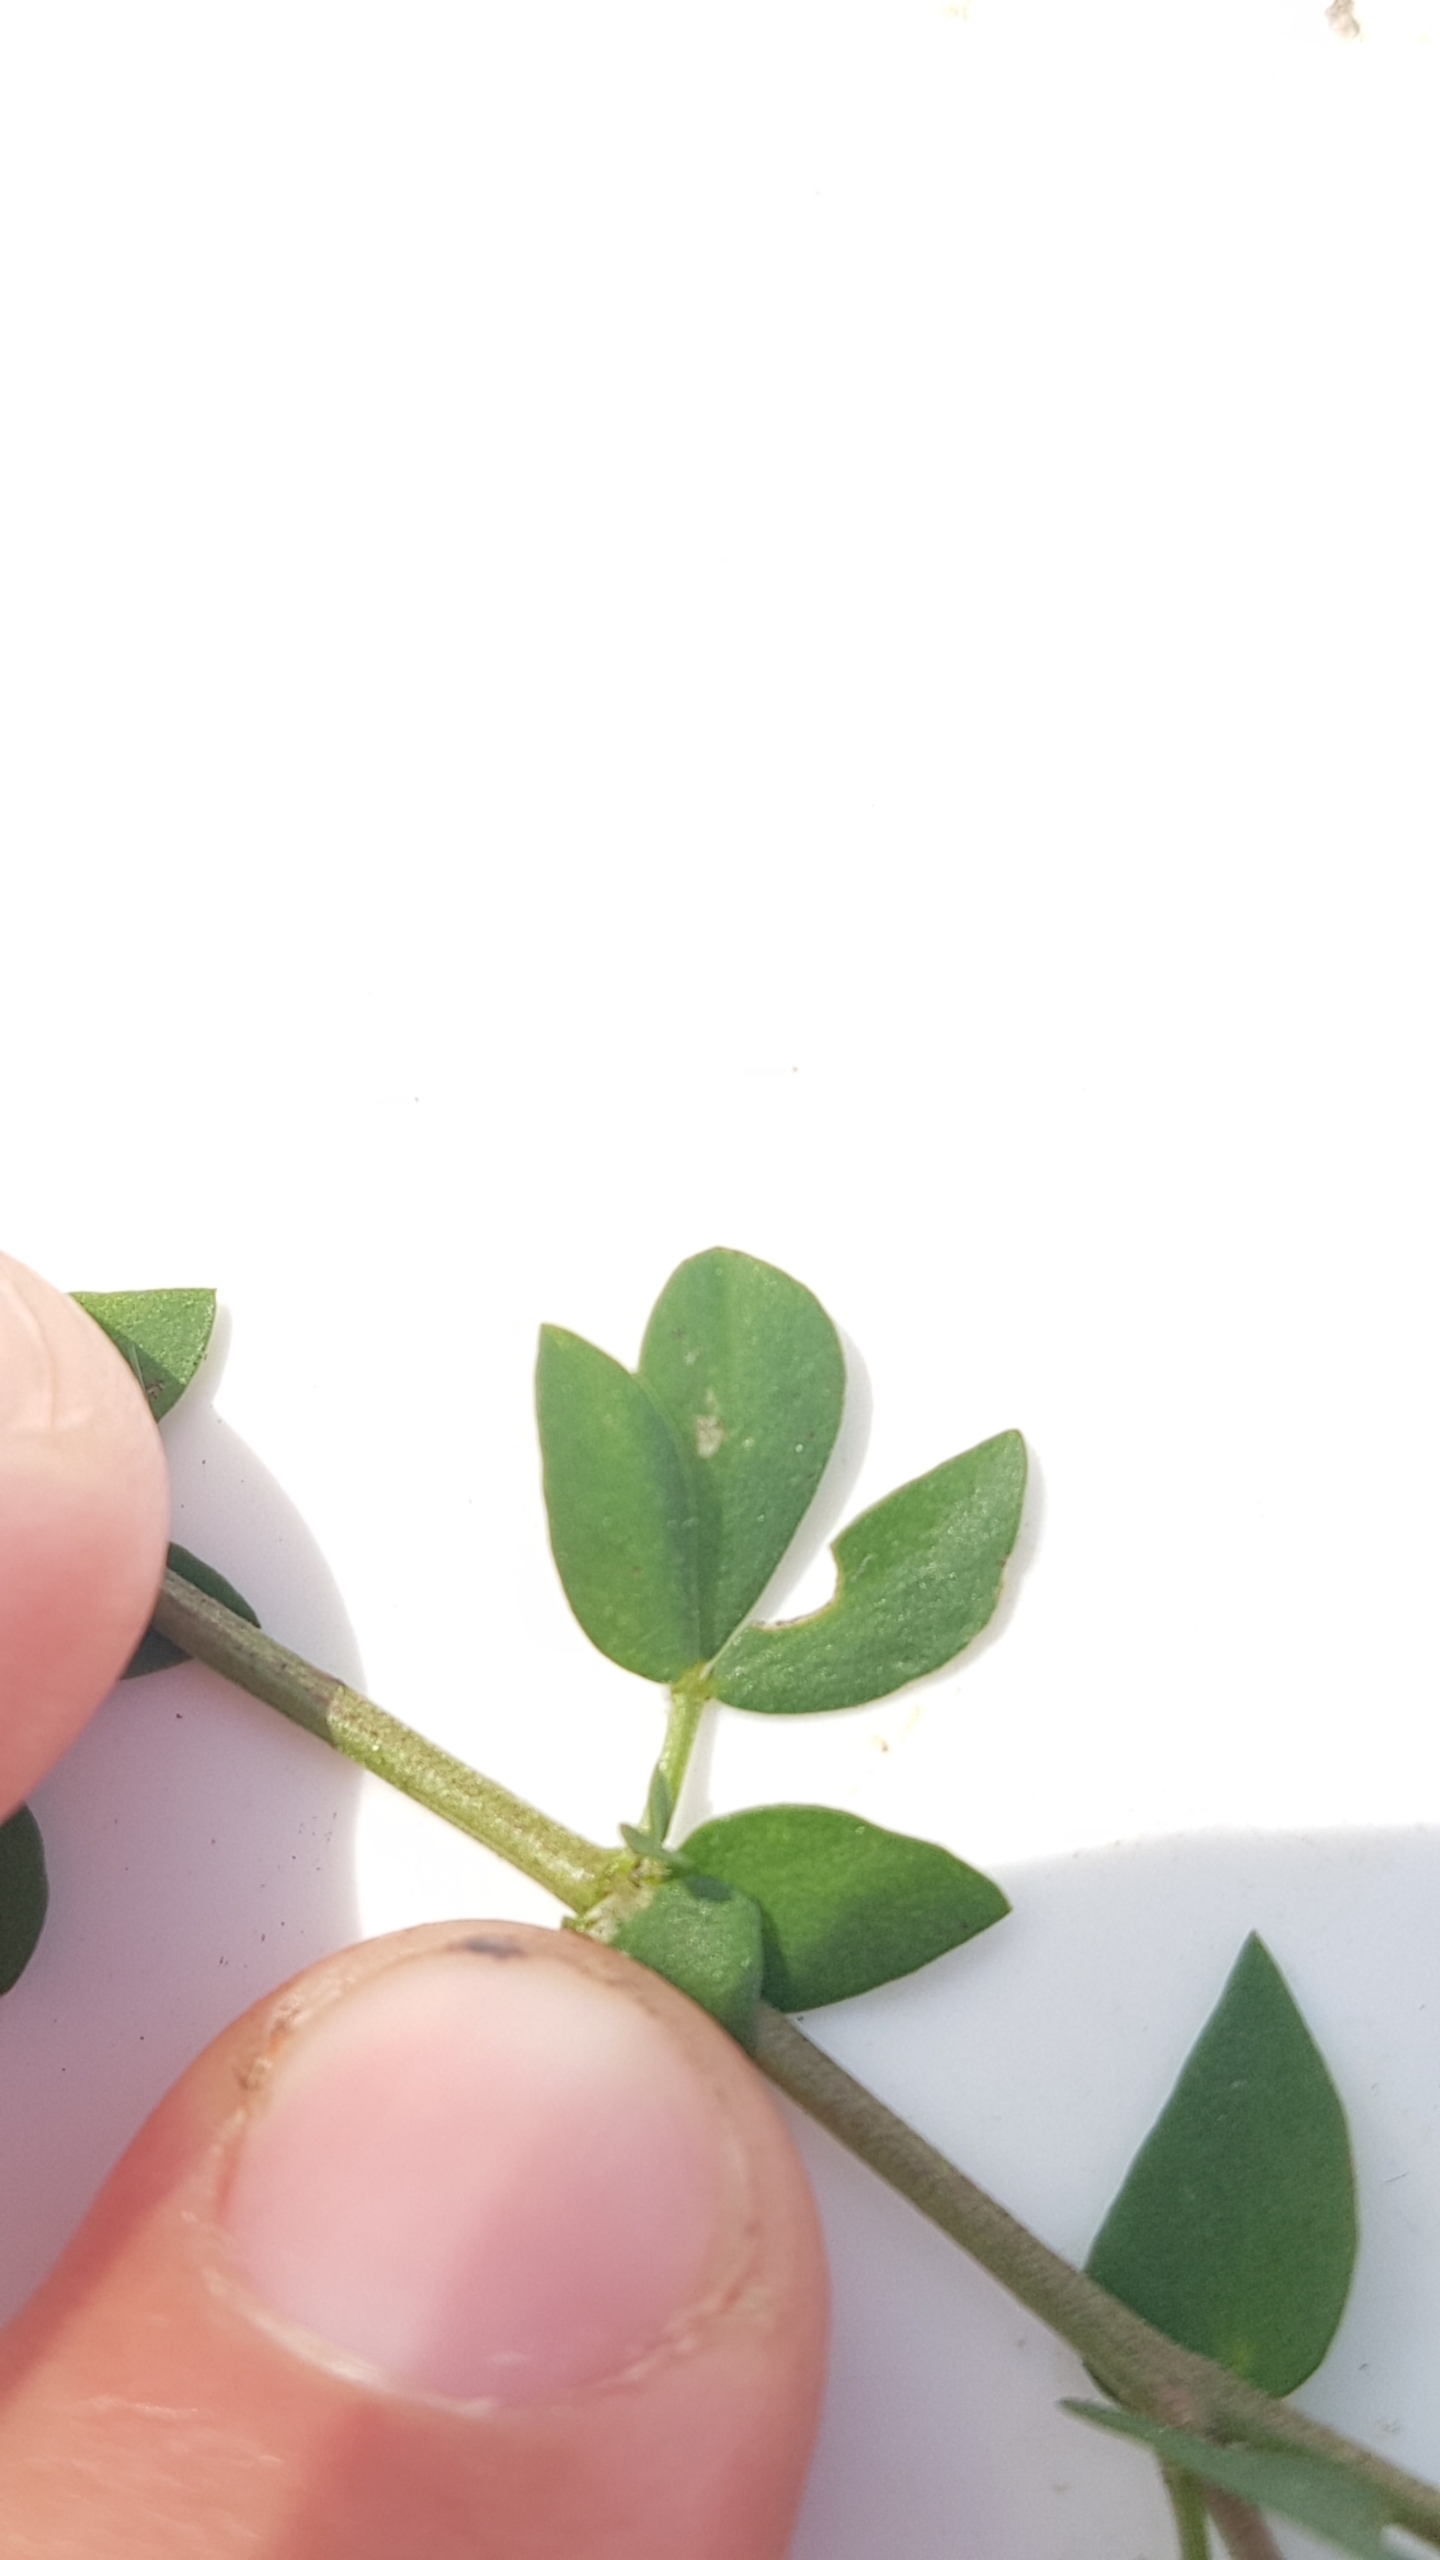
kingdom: Plantae
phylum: Tracheophyta
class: Magnoliopsida
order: Fabales
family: Fabaceae
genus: Lotus
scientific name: Lotus corniculatus
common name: Almindelig kællingetand
